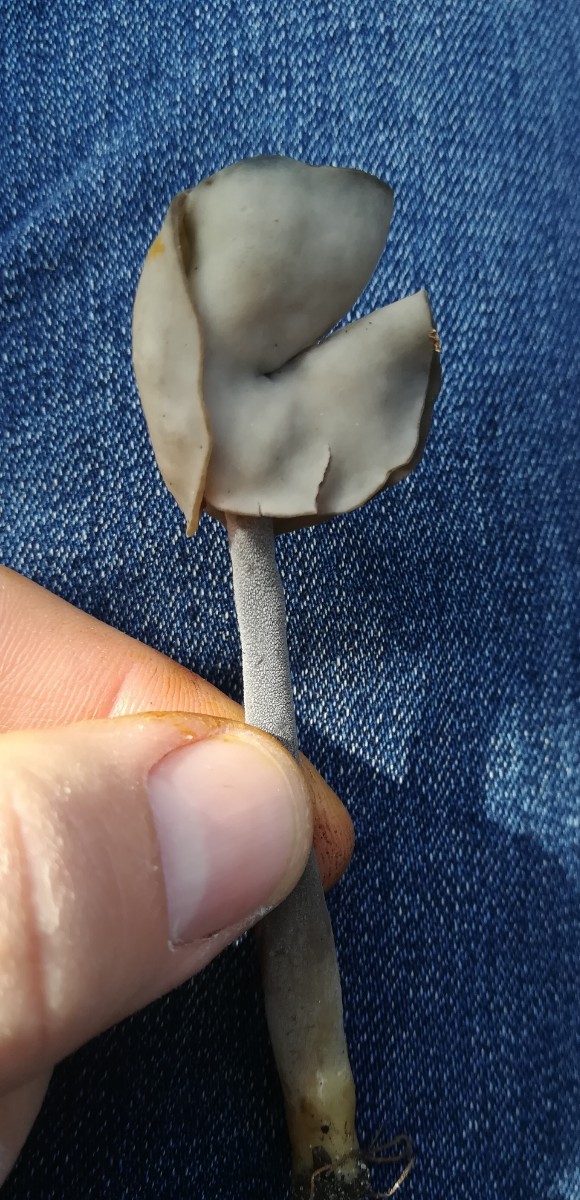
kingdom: Fungi
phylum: Ascomycota
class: Pezizomycetes
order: Pezizales
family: Helvellaceae
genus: Helvella
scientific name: Helvella
